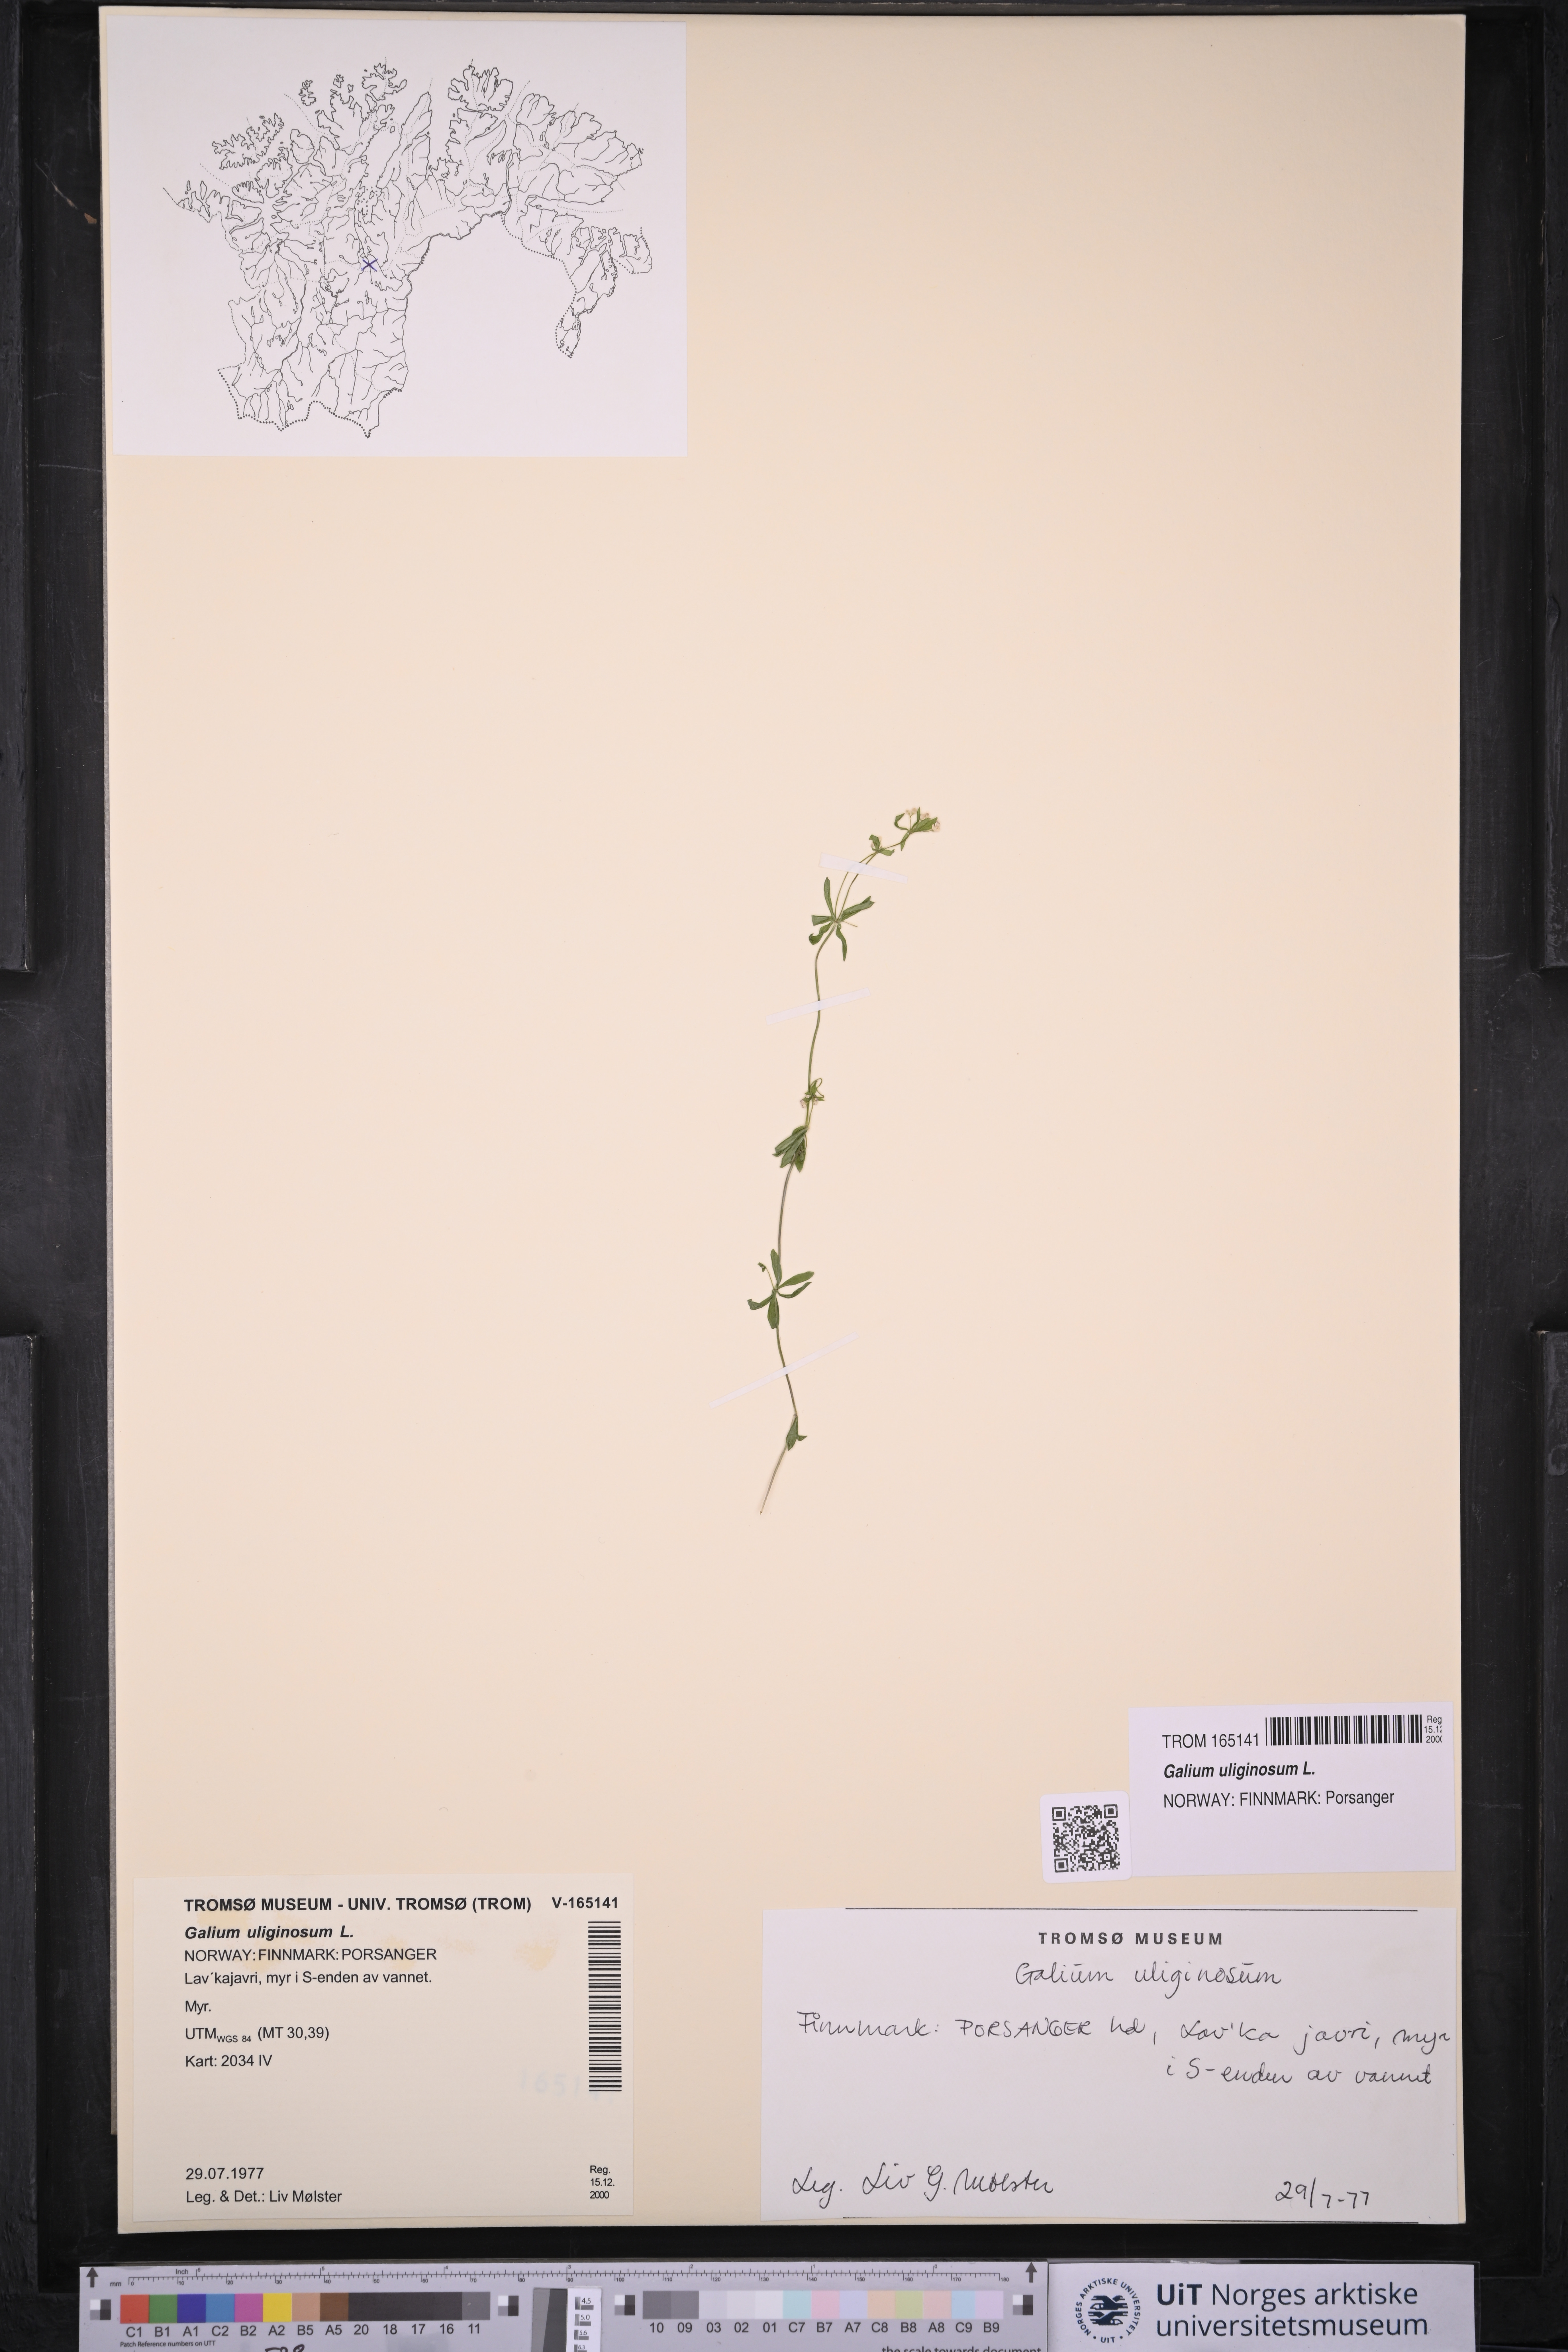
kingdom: Plantae
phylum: Tracheophyta
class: Magnoliopsida
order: Gentianales
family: Rubiaceae
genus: Galium
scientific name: Galium uliginosum
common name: Fen bedstraw
